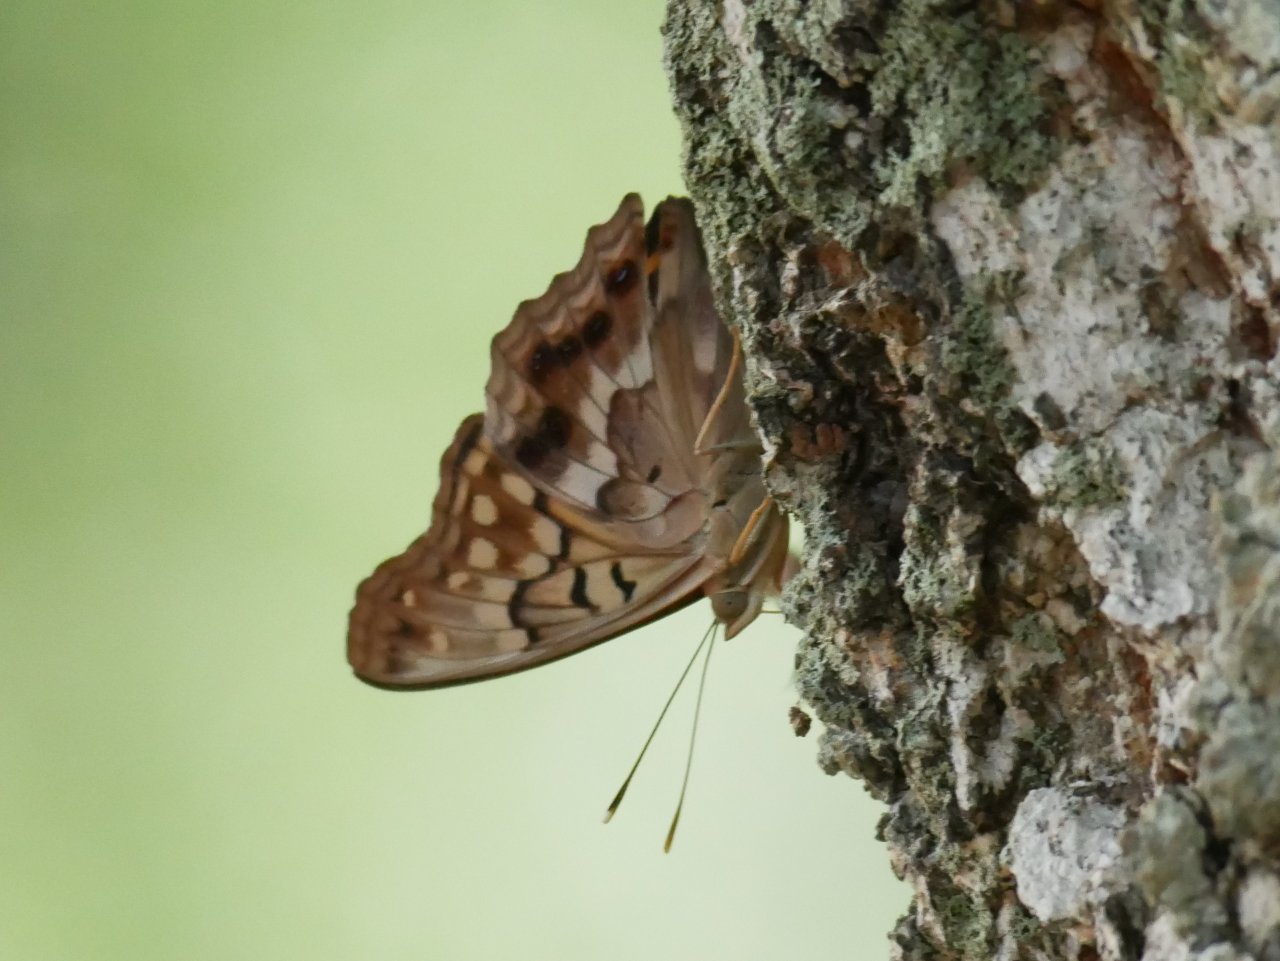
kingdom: Animalia
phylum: Arthropoda
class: Insecta
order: Lepidoptera
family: Nymphalidae
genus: Asterocampa
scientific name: Asterocampa clyton
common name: Tawny Emperor
